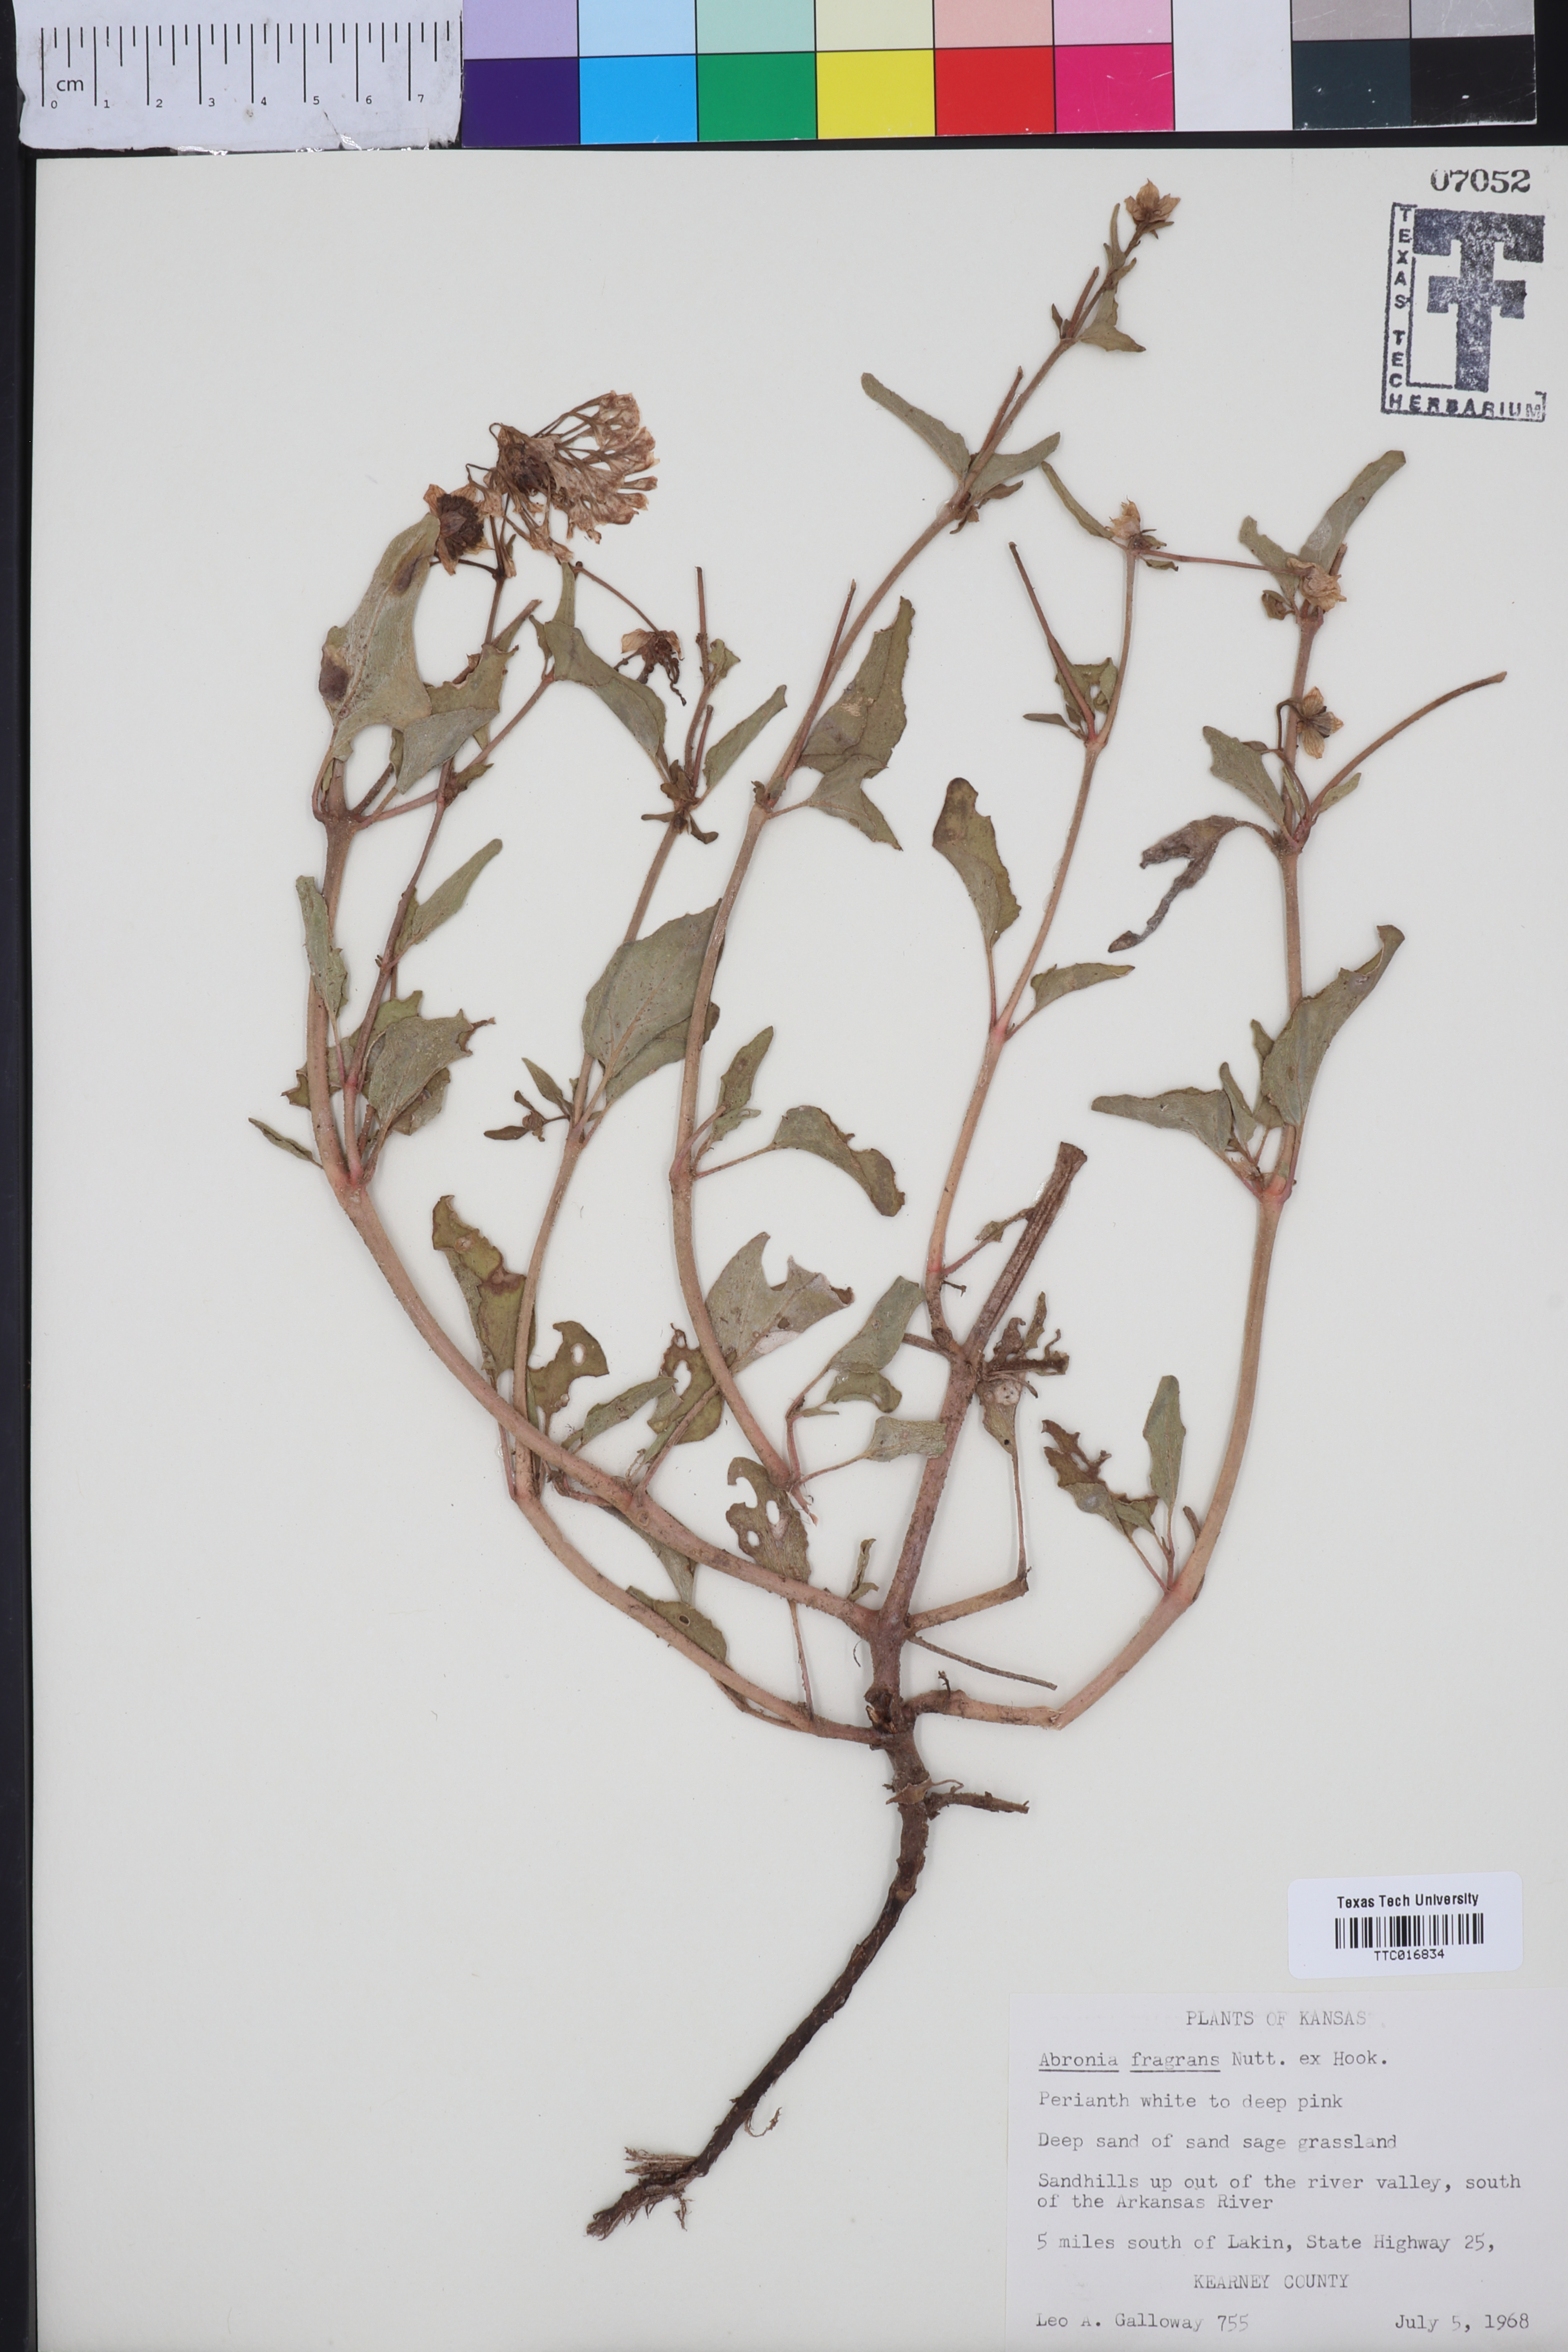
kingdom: Plantae
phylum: Tracheophyta
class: Magnoliopsida
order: Caryophyllales
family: Nyctaginaceae
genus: Abronia
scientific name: Abronia fragrans
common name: Fragrant sand-verbena
